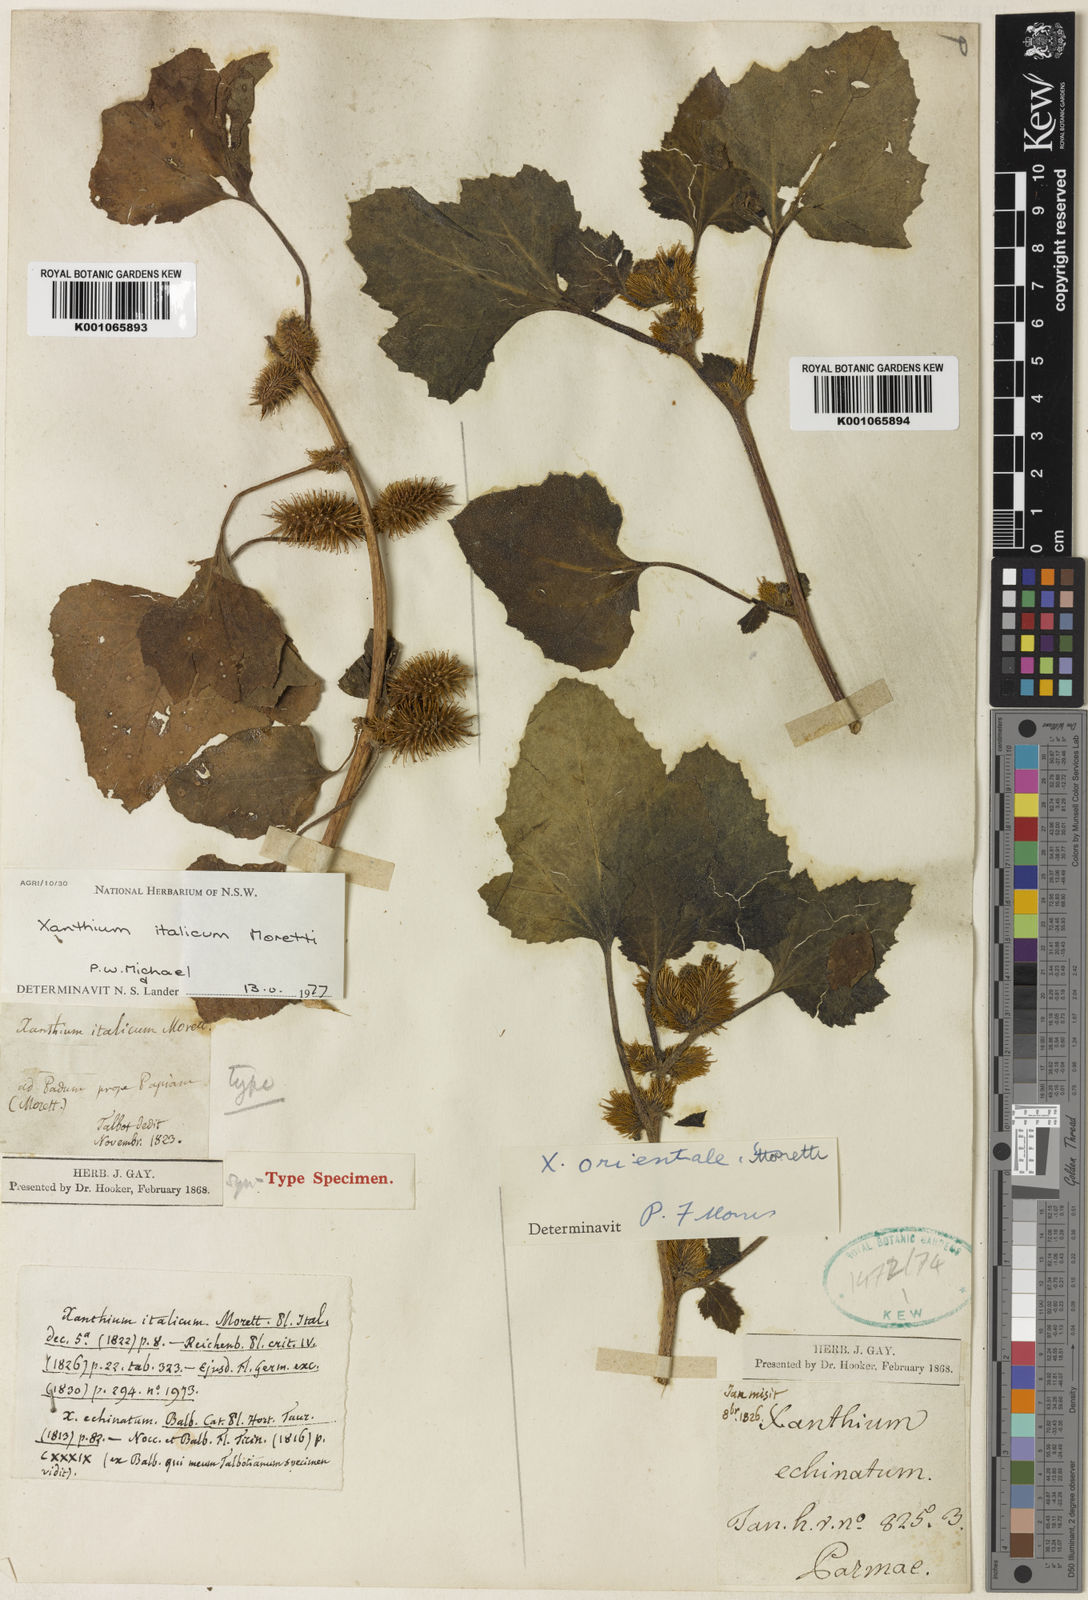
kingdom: Plantae
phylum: Tracheophyta
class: Magnoliopsida
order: Asterales
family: Asteraceae
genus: Xanthium
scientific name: Xanthium strumarium
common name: Rough cocklebur
